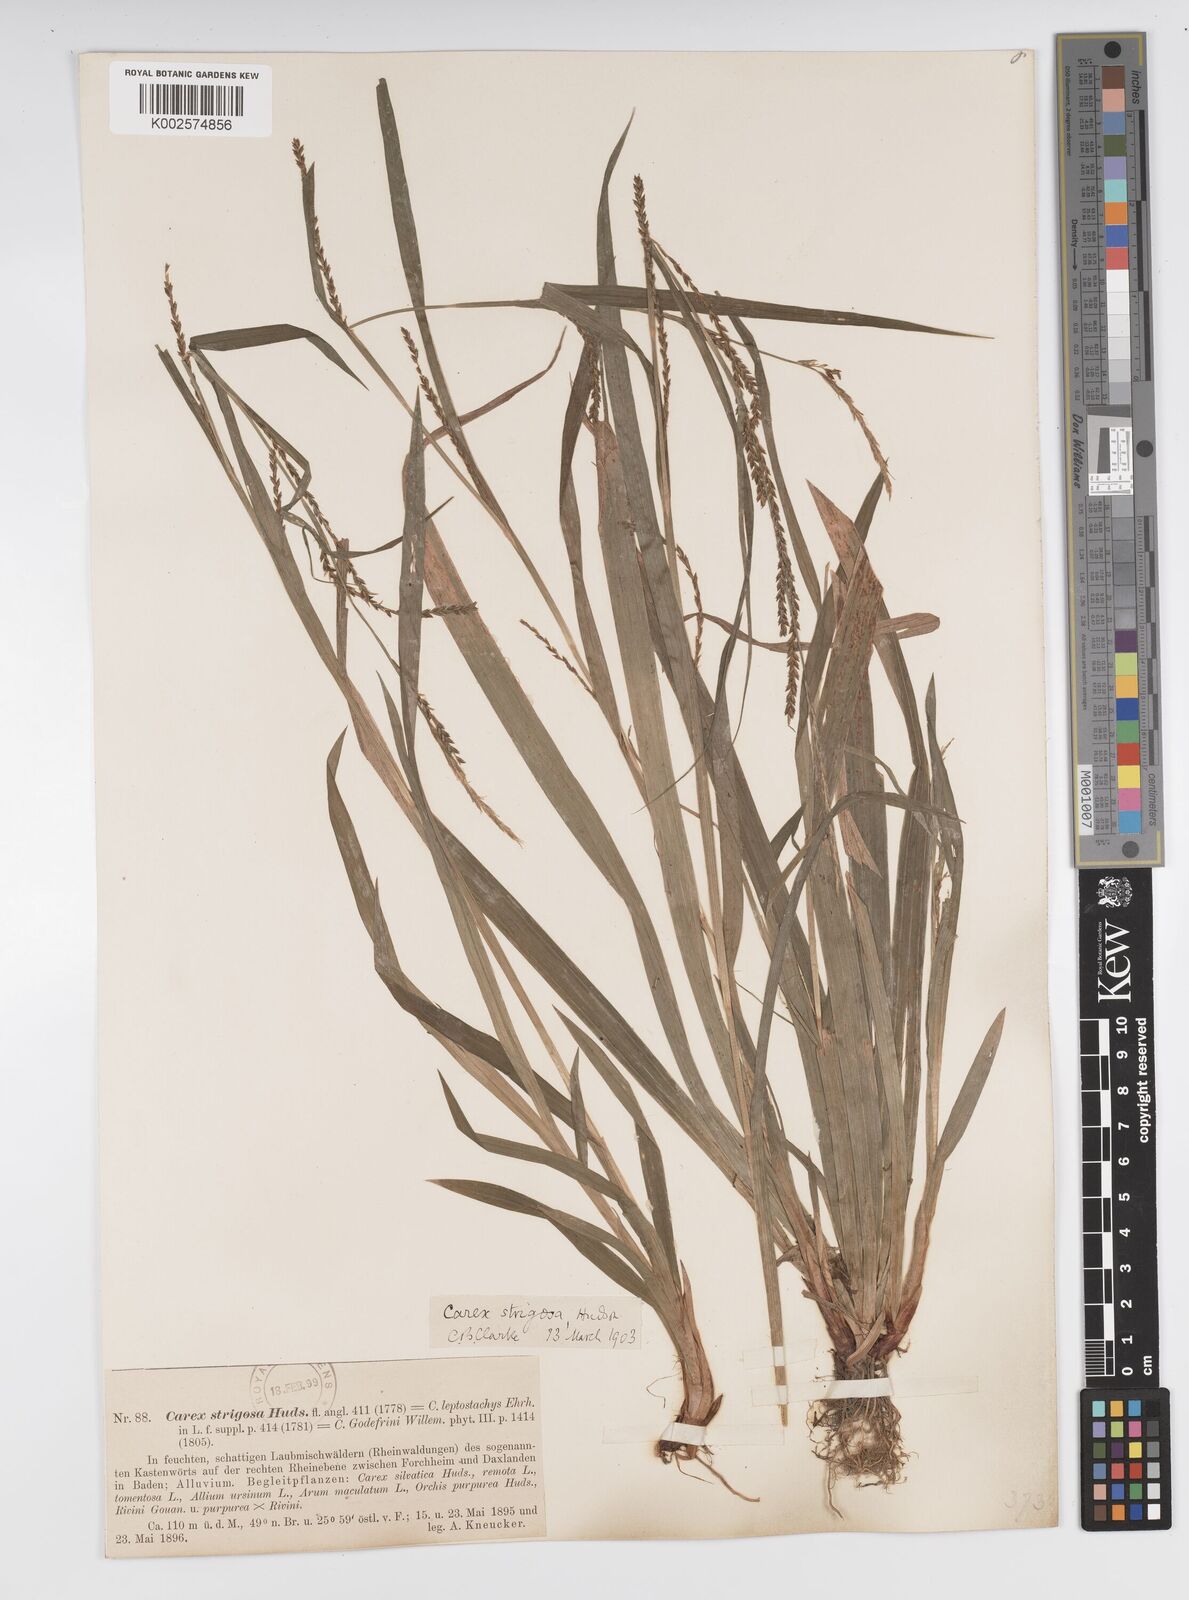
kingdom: Plantae
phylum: Tracheophyta
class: Liliopsida
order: Poales
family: Cyperaceae
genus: Carex
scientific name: Carex strigosa
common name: Thin-spiked wood-sedge
